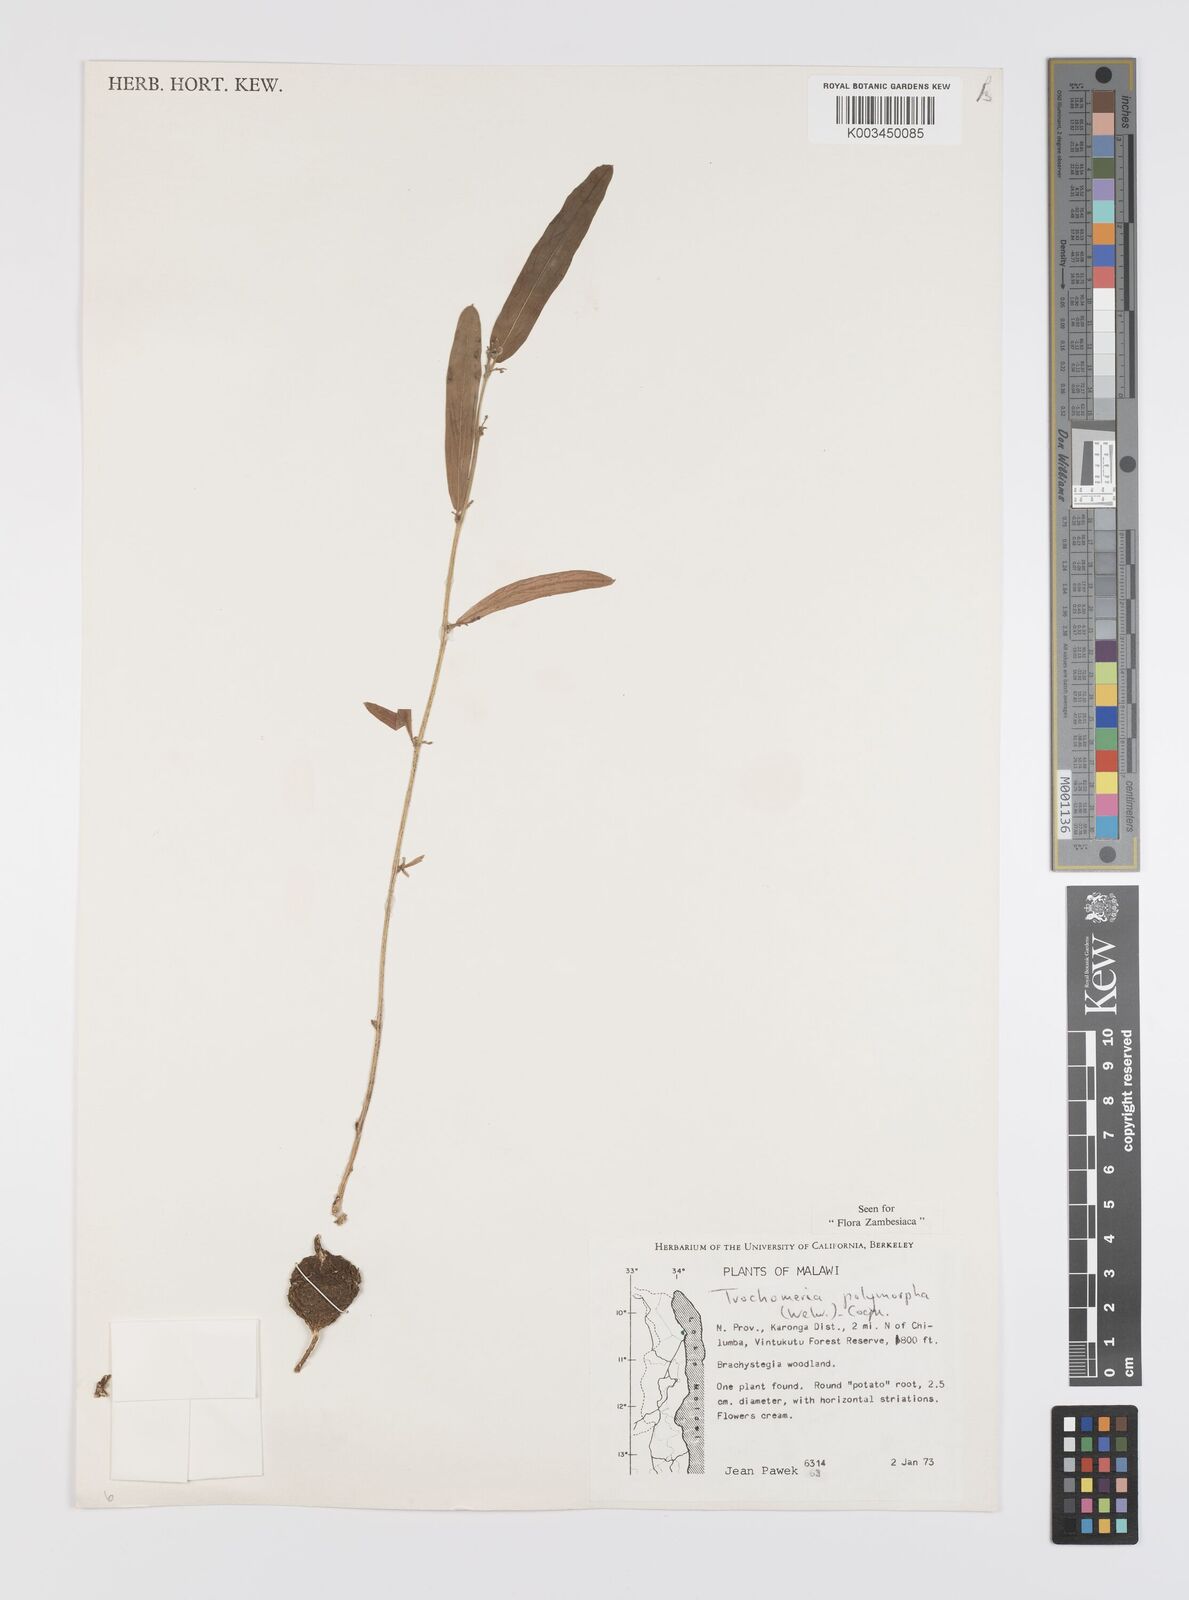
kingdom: Plantae
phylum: Tracheophyta
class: Magnoliopsida
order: Cucurbitales
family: Cucurbitaceae
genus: Trochomeria
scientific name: Trochomeria polymorpha
